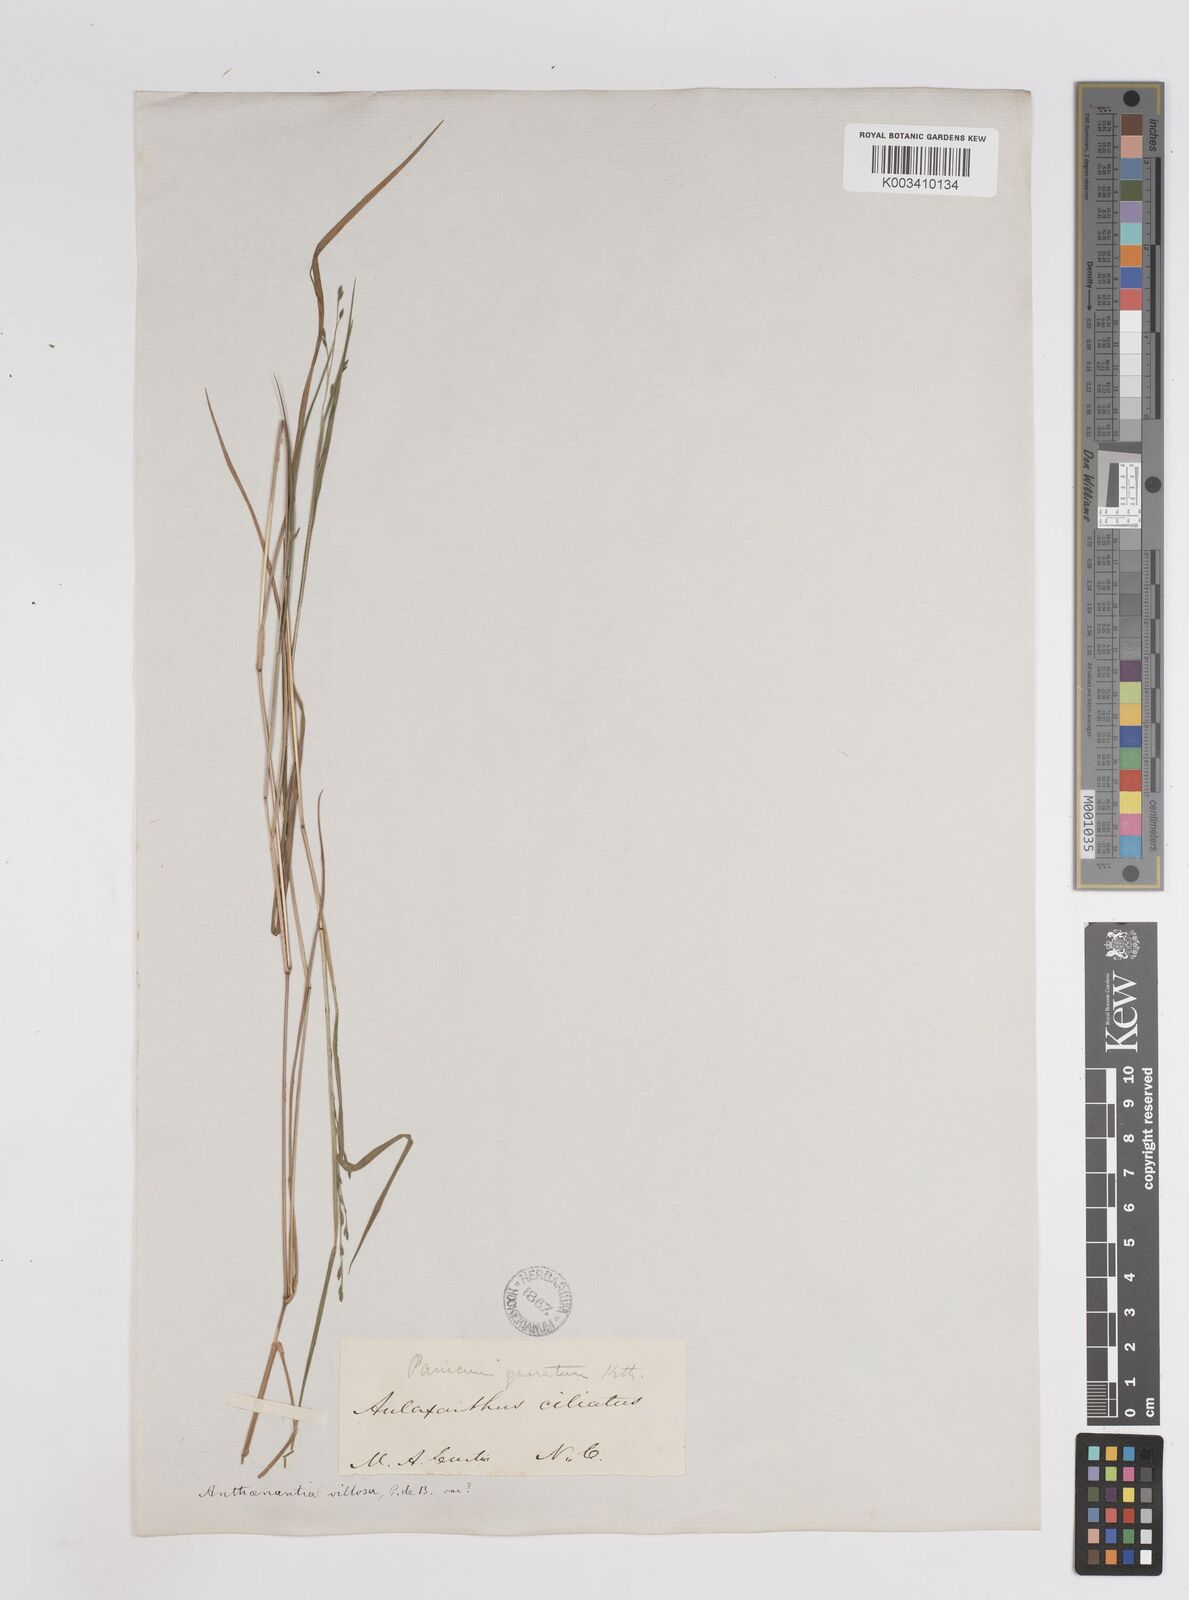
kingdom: Plantae
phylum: Tracheophyta
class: Liliopsida
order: Poales
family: Poaceae
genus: Kellochloa
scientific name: Kellochloa brachyantha
